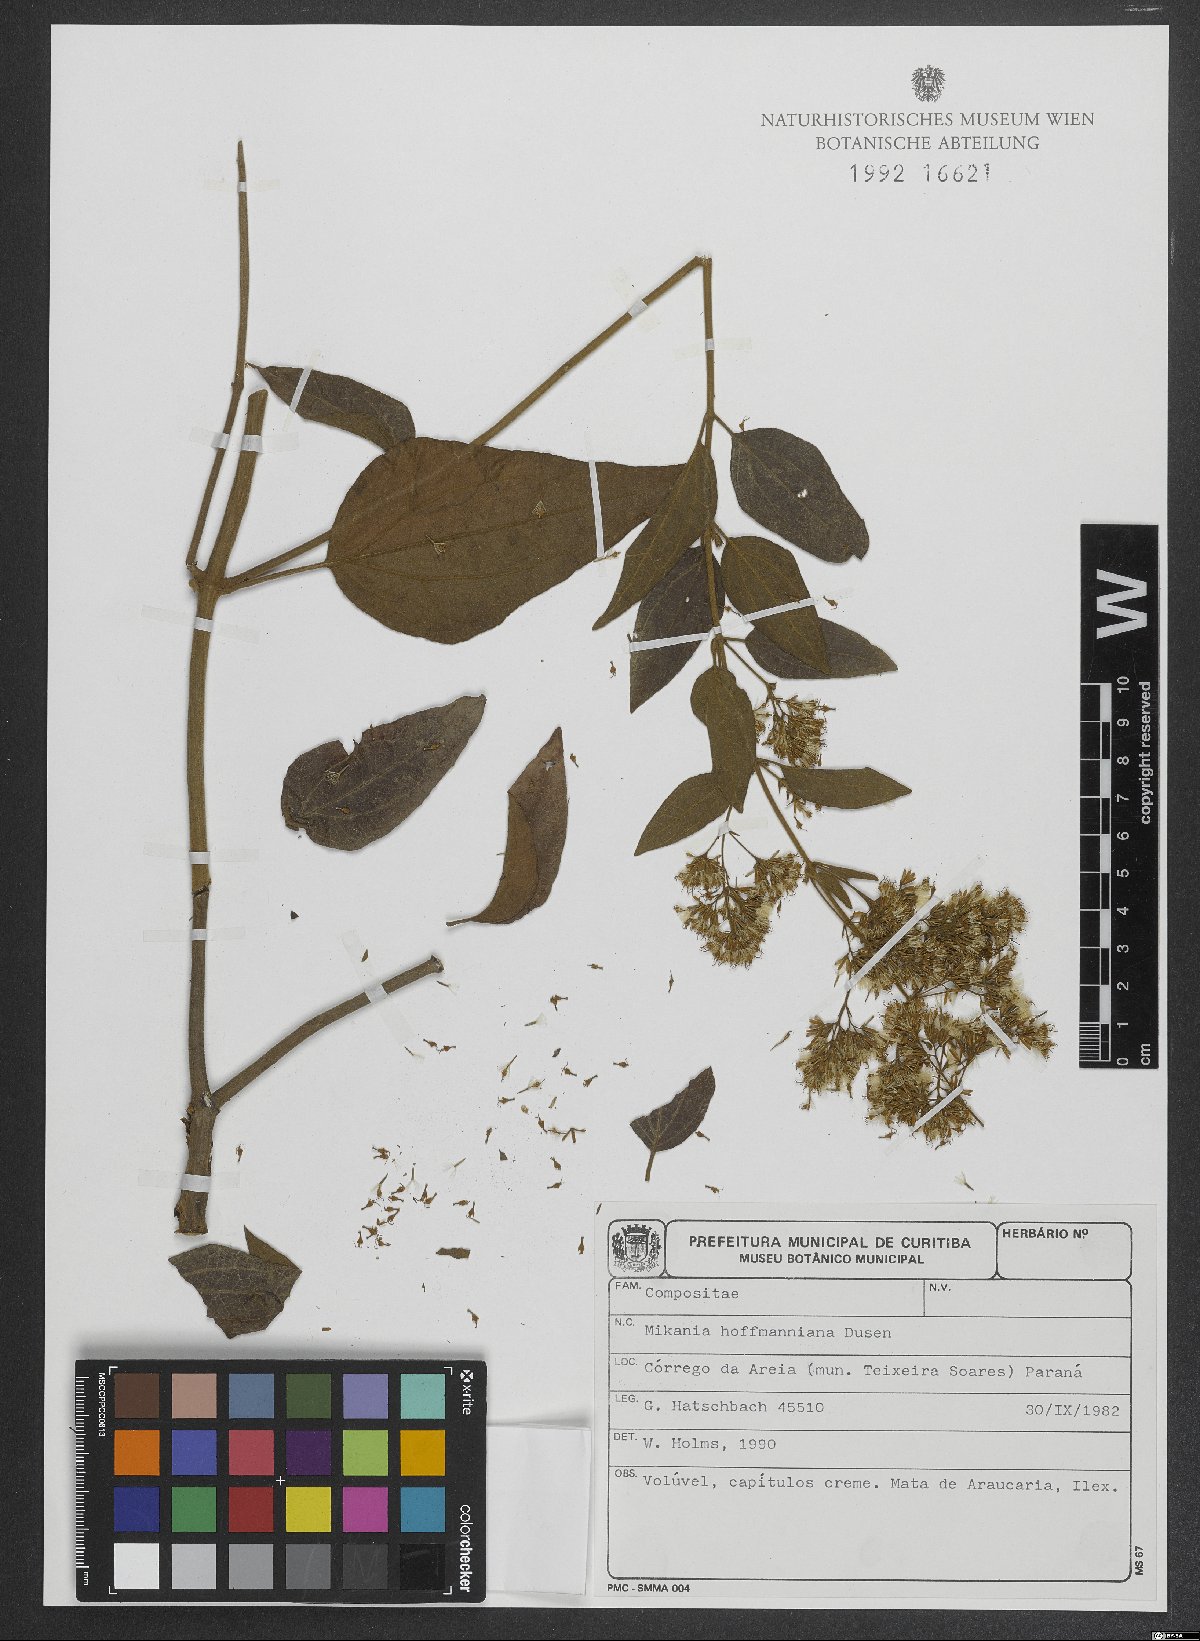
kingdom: Plantae
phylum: Tracheophyta
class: Magnoliopsida
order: Asterales
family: Asteraceae
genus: Mikania
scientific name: Mikania hoffmanniana
